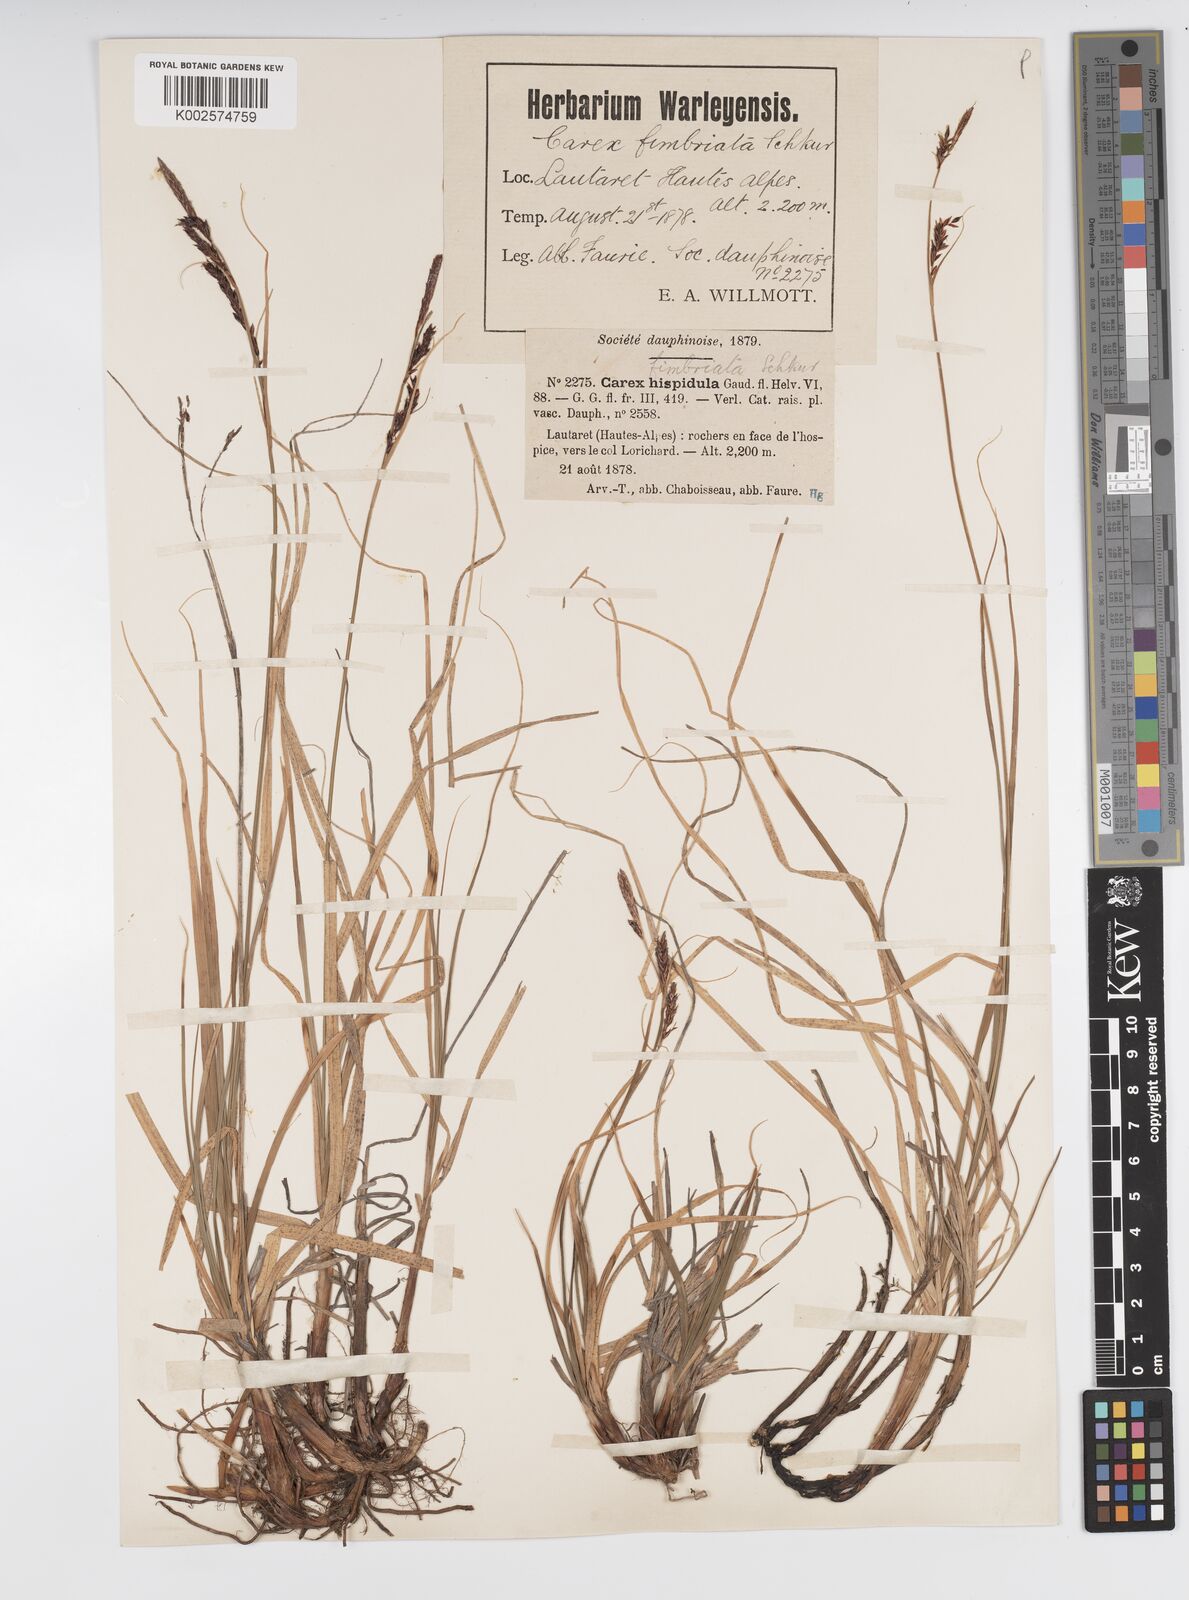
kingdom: Plantae
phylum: Tracheophyta
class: Liliopsida
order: Poales
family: Cyperaceae
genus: Carex
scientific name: Carex fimbriata
